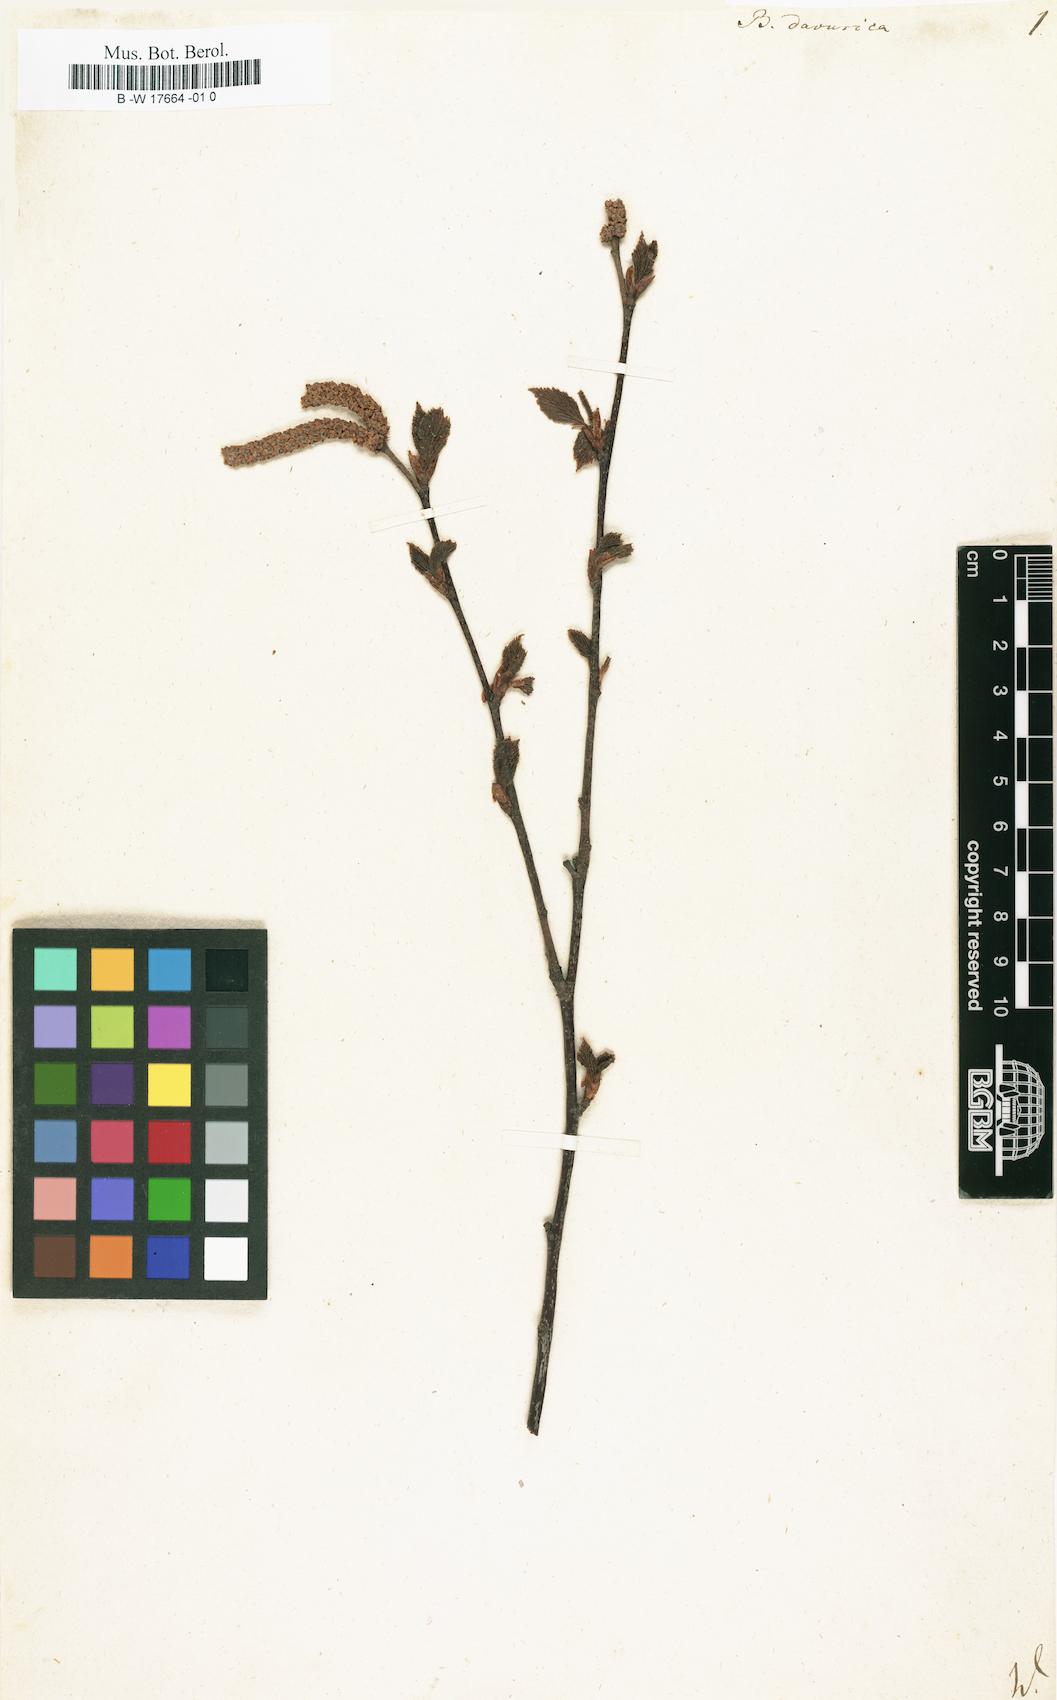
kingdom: Plantae
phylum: Tracheophyta
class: Magnoliopsida
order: Fagales
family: Betulaceae
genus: Betula
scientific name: Betula davurica
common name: Black birch
